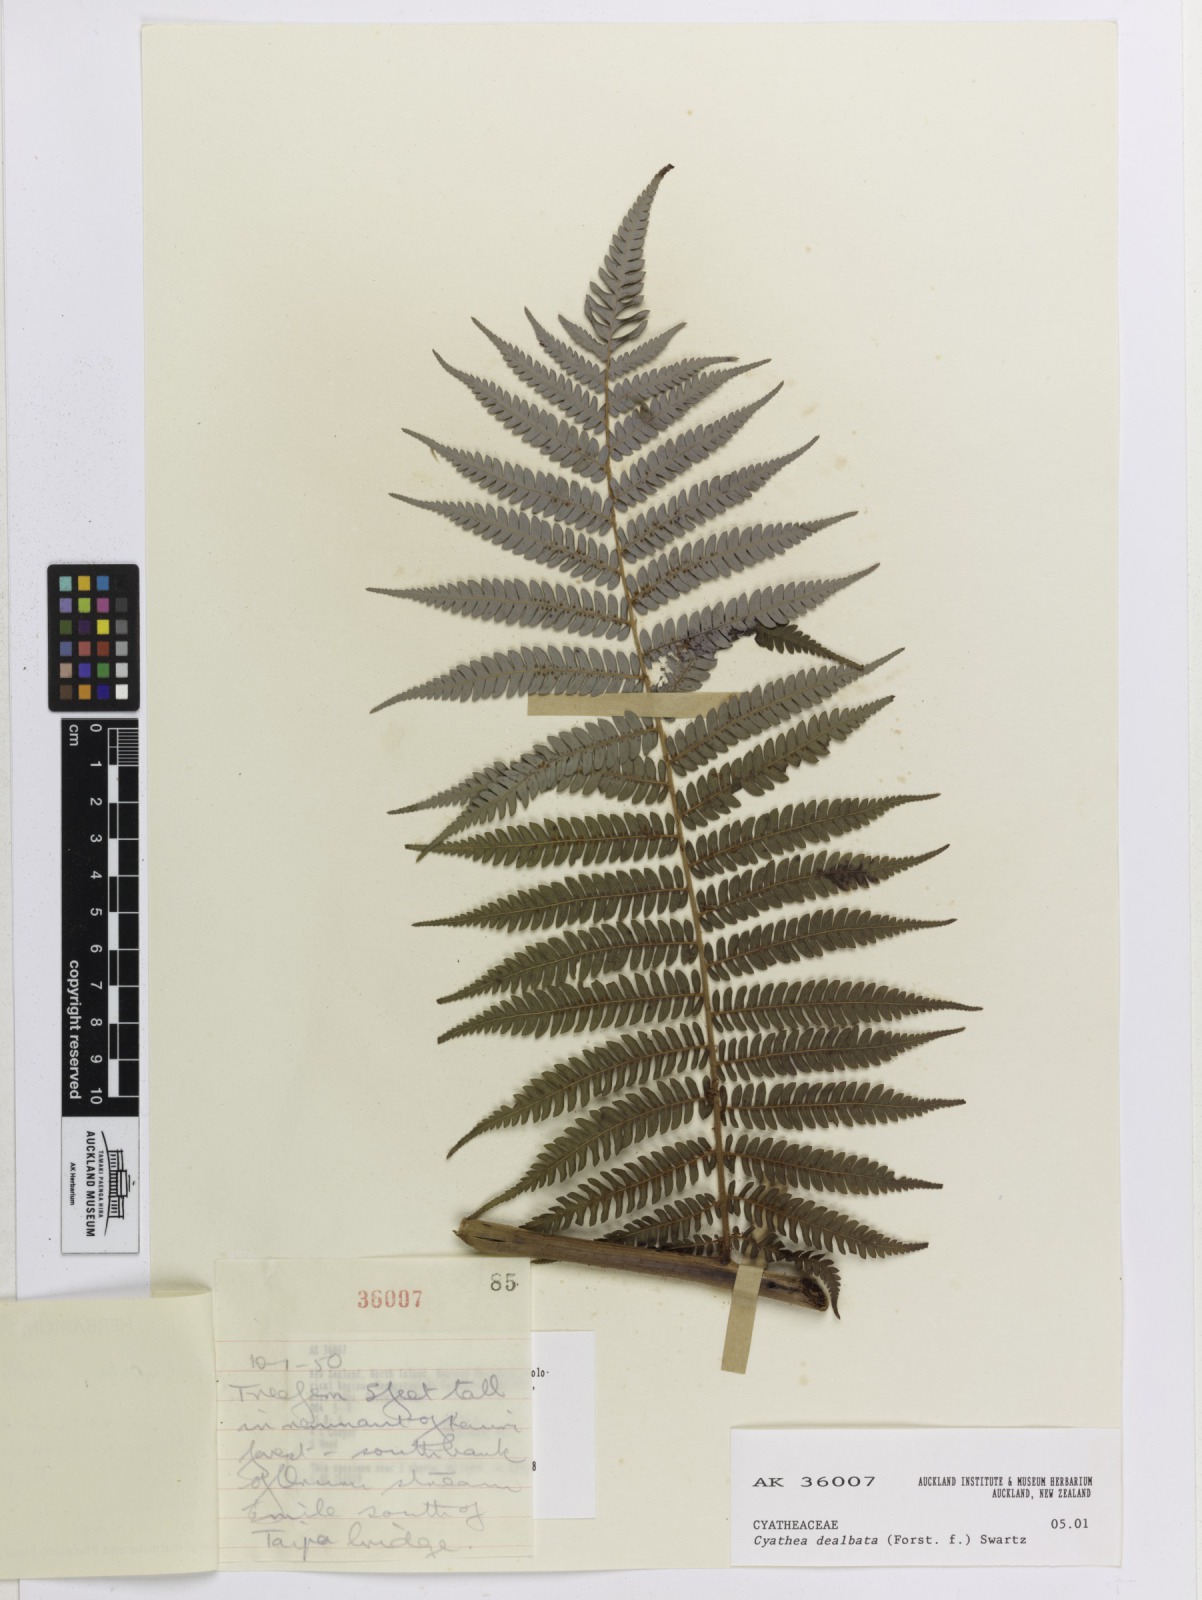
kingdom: Plantae
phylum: Tracheophyta
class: Polypodiopsida
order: Cyatheales
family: Cyatheaceae
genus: Alsophila
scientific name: Alsophila dealbata
